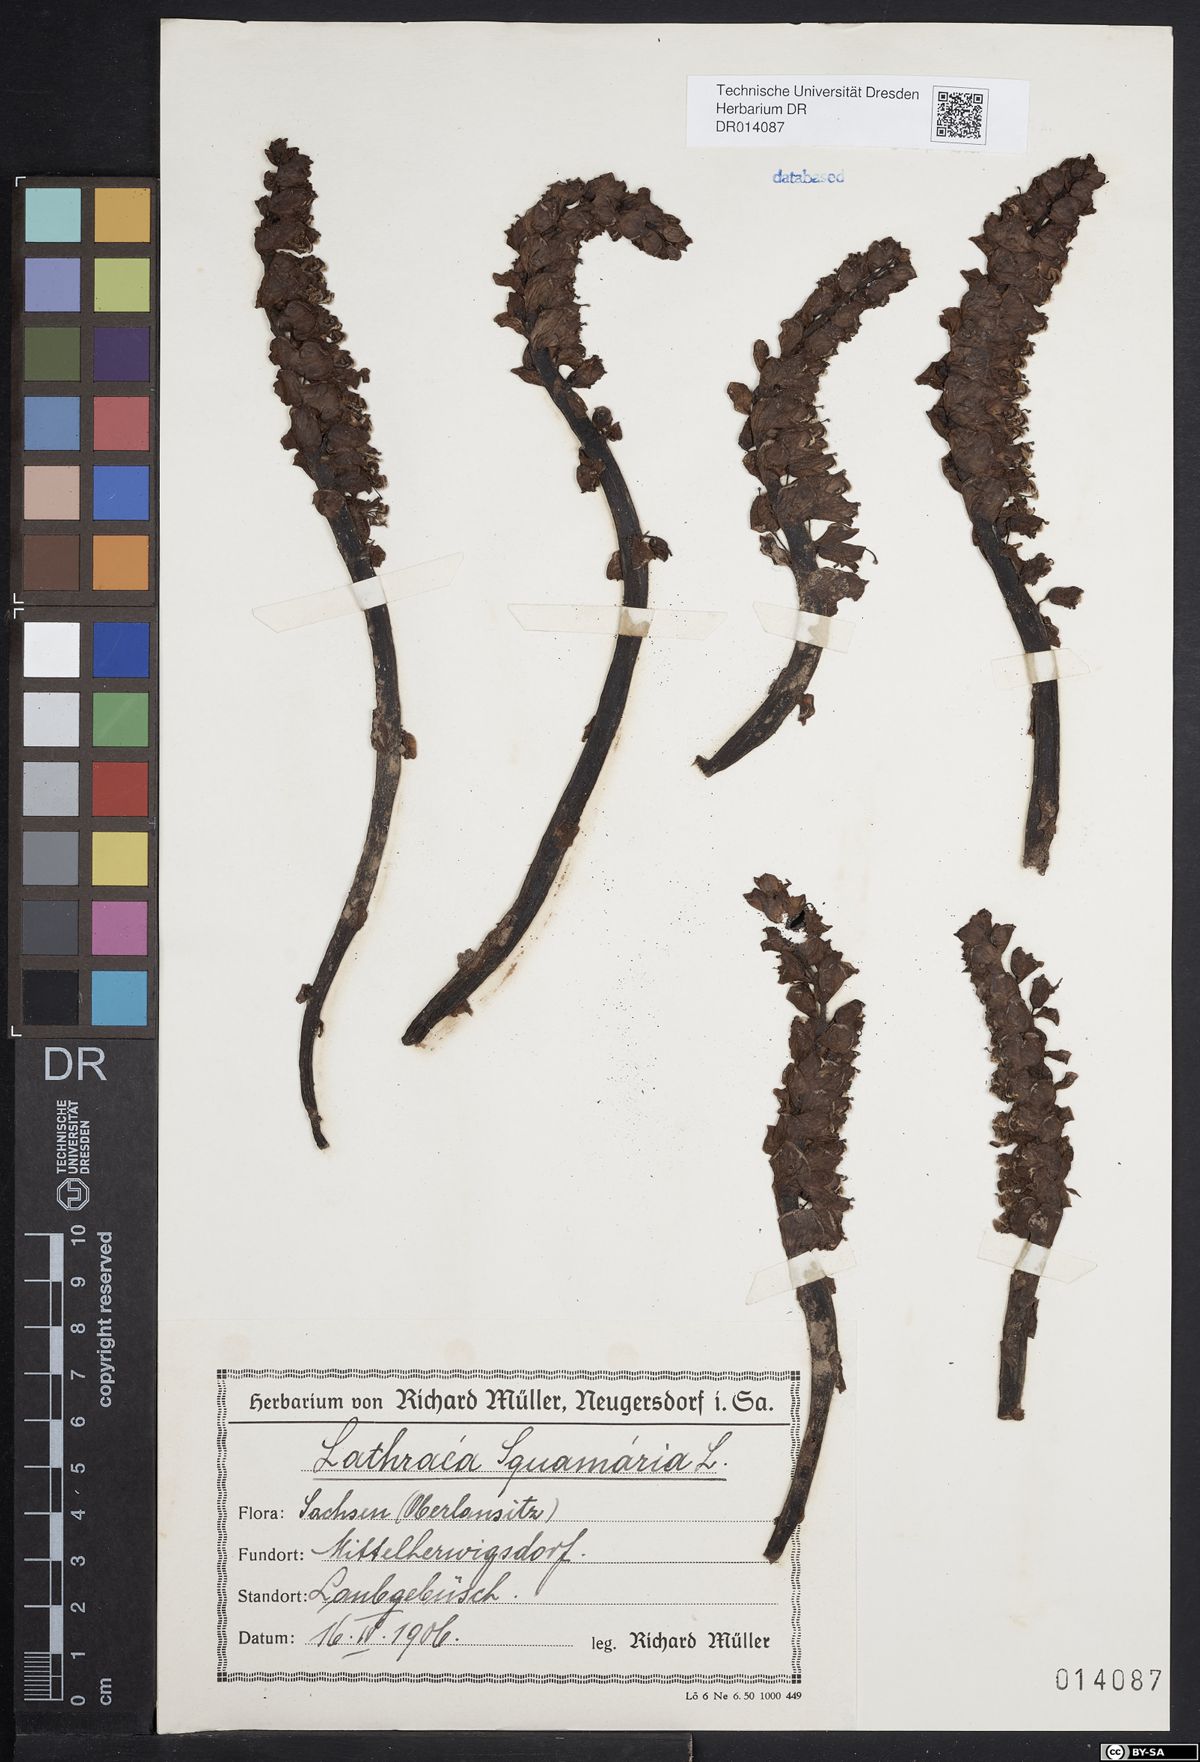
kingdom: Plantae
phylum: Tracheophyta
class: Magnoliopsida
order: Lamiales
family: Orobanchaceae
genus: Lathraea
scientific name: Lathraea squamaria
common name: Toothwort
